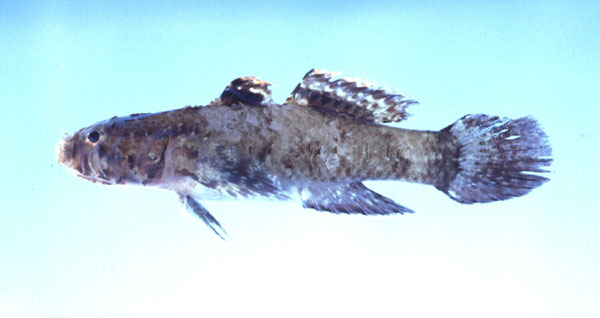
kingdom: Animalia
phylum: Chordata
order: Perciformes
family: Gobiidae
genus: Callogobius
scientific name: Callogobius
